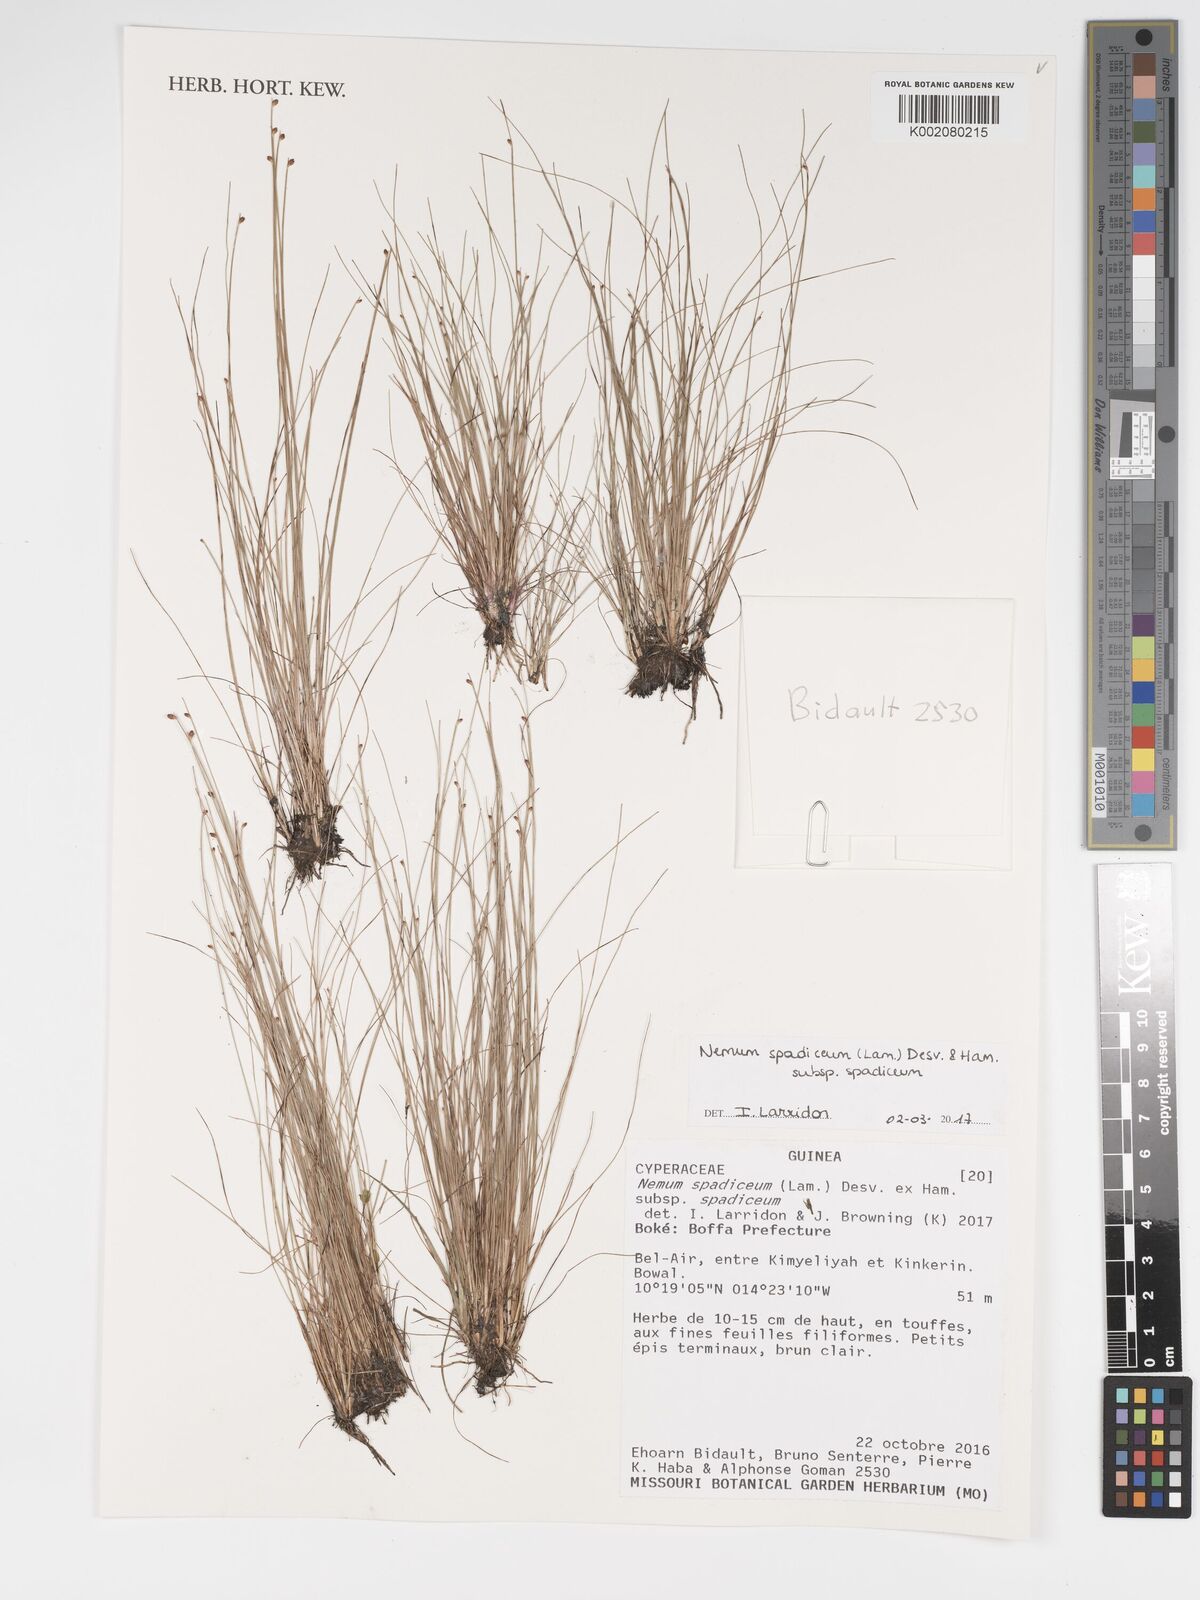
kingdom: Plantae
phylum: Tracheophyta
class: Liliopsida
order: Poales
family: Cyperaceae
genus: Bulbostylis
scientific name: Bulbostylis briziformis
